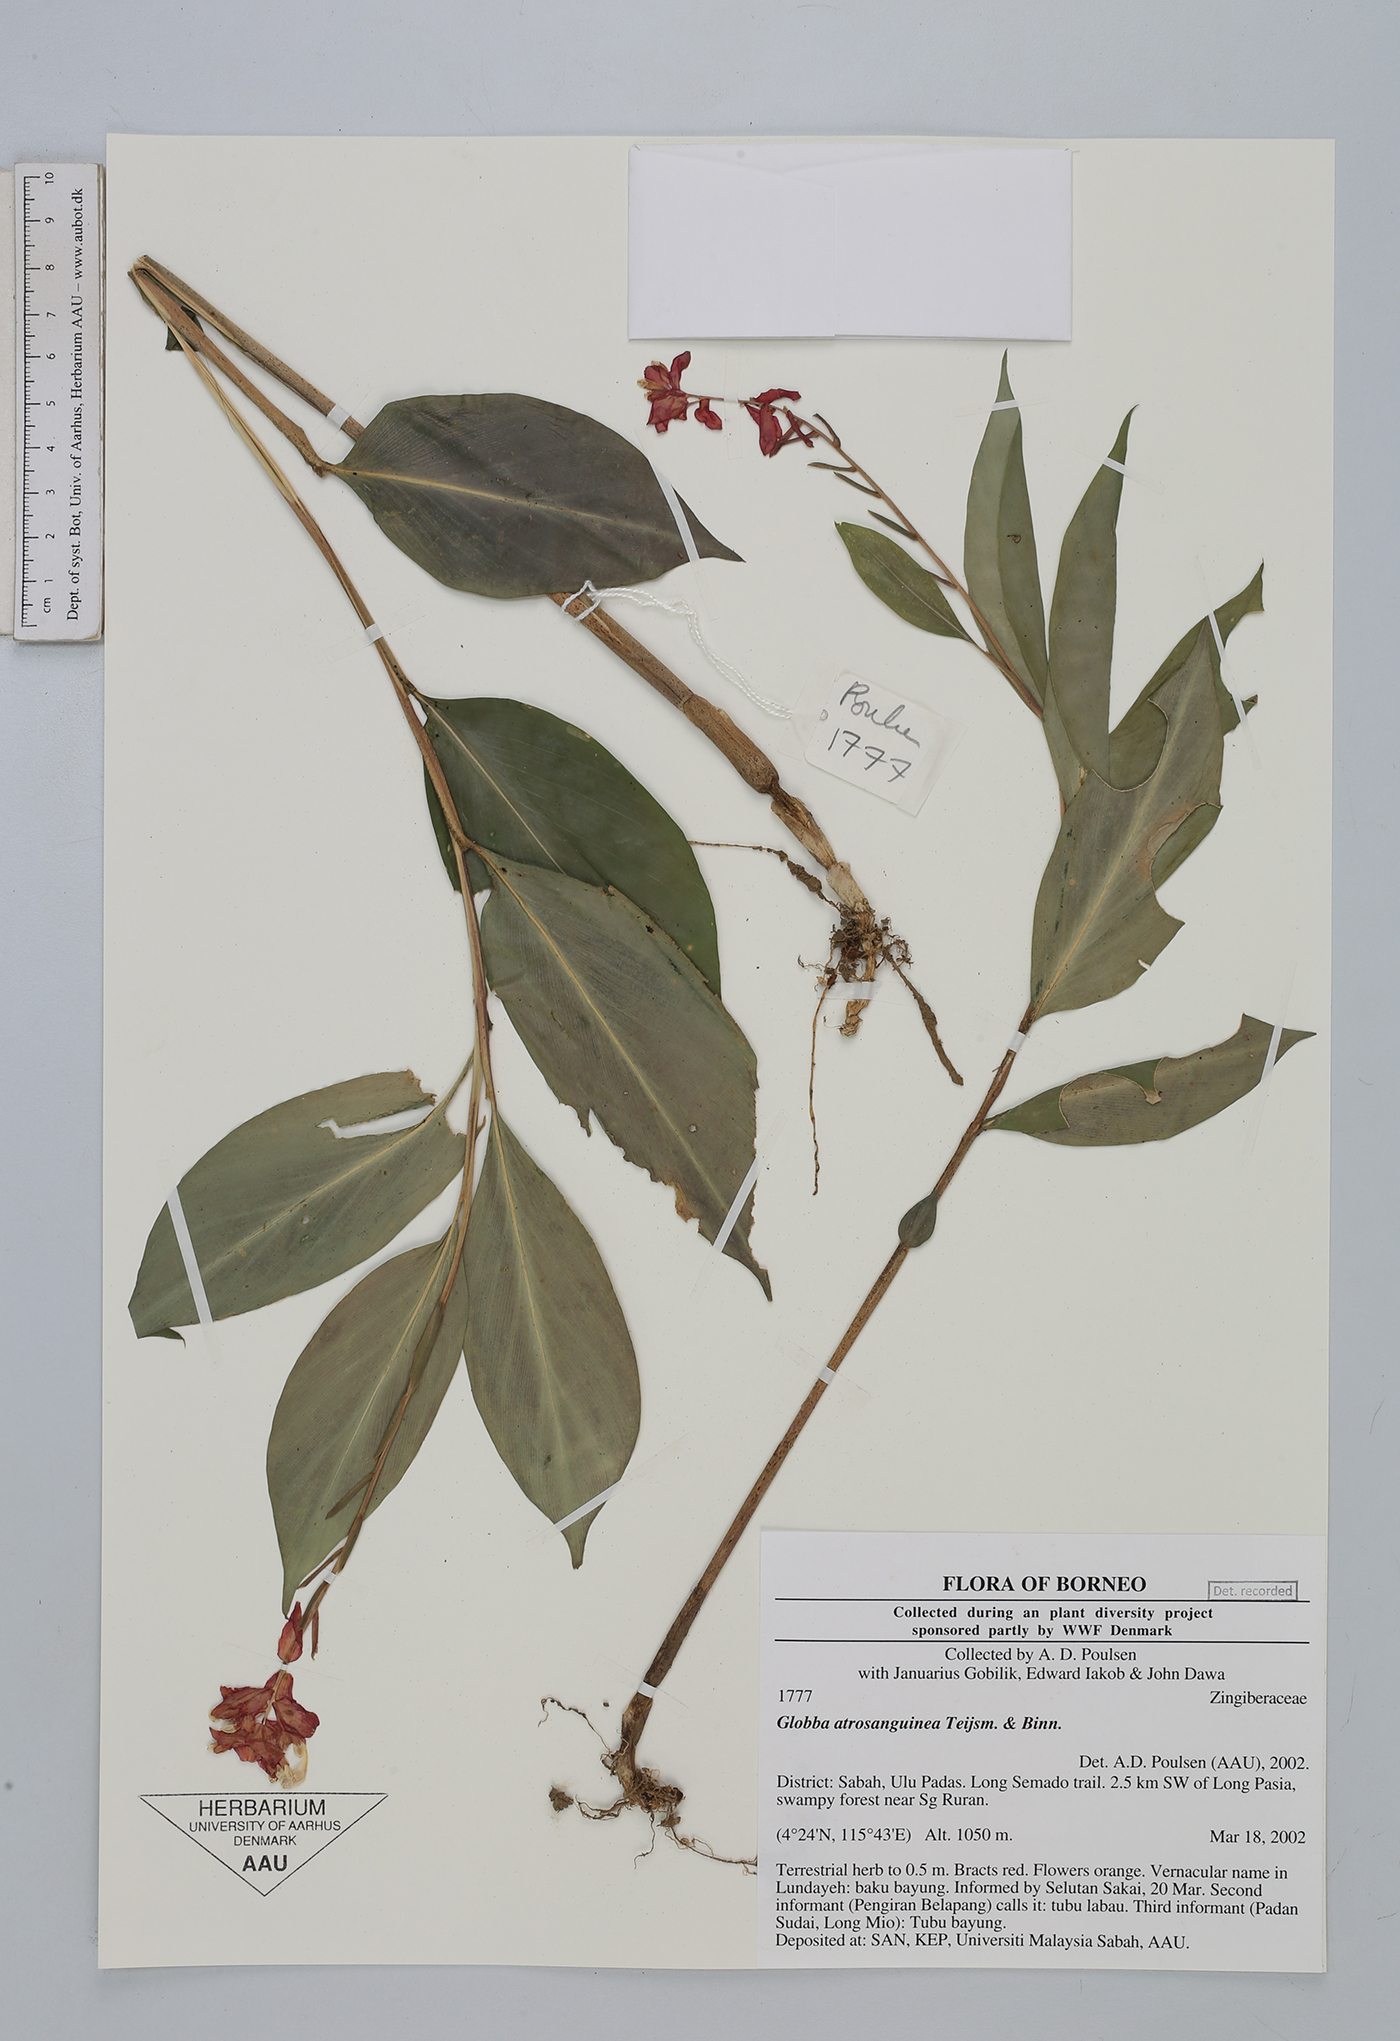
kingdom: Plantae
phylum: Tracheophyta
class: Liliopsida
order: Zingiberales
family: Zingiberaceae
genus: Globba
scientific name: Globba atrosanguinea
